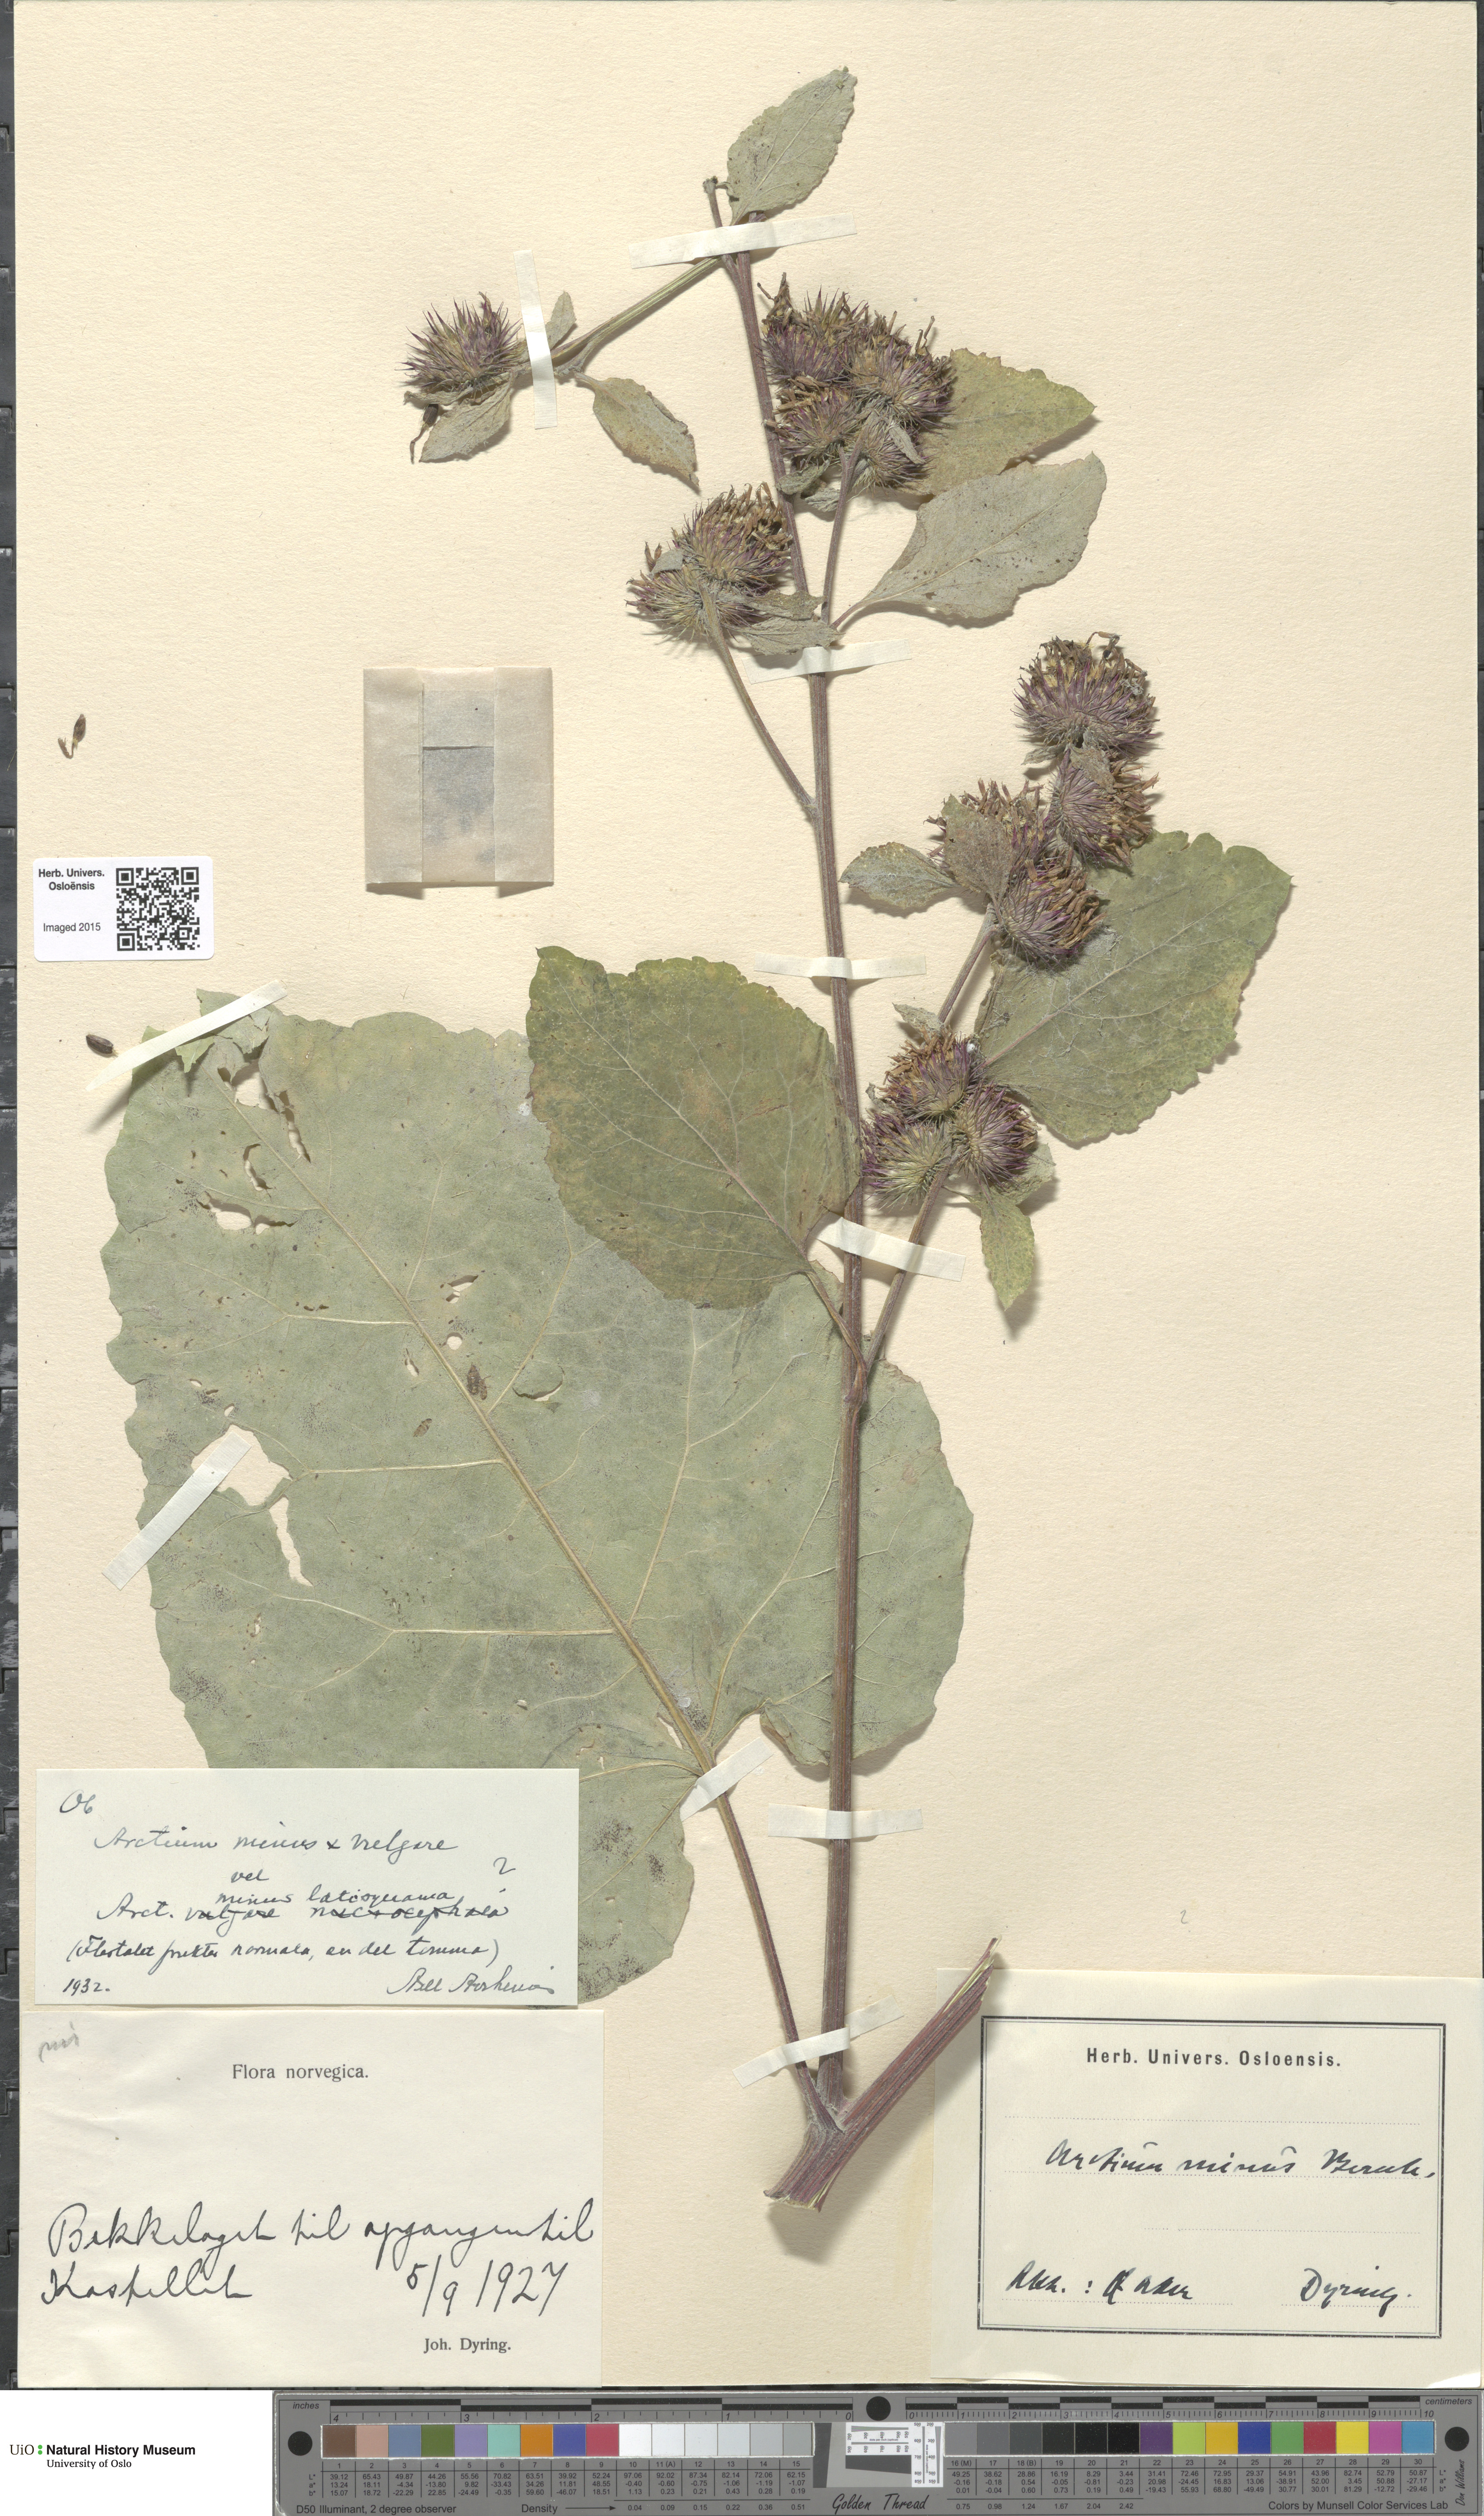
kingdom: Plantae
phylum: Tracheophyta
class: Magnoliopsida
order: Asterales
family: Asteraceae
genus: Arctium
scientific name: Arctium
